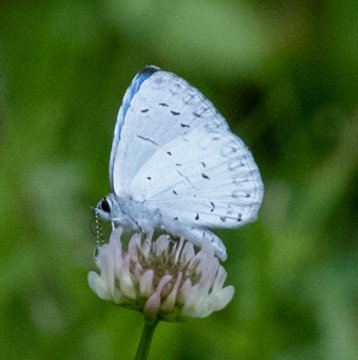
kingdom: Animalia
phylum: Arthropoda
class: Insecta
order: Lepidoptera
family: Lycaenidae
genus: Cyaniris
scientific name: Cyaniris neglecta
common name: Summer Azure
